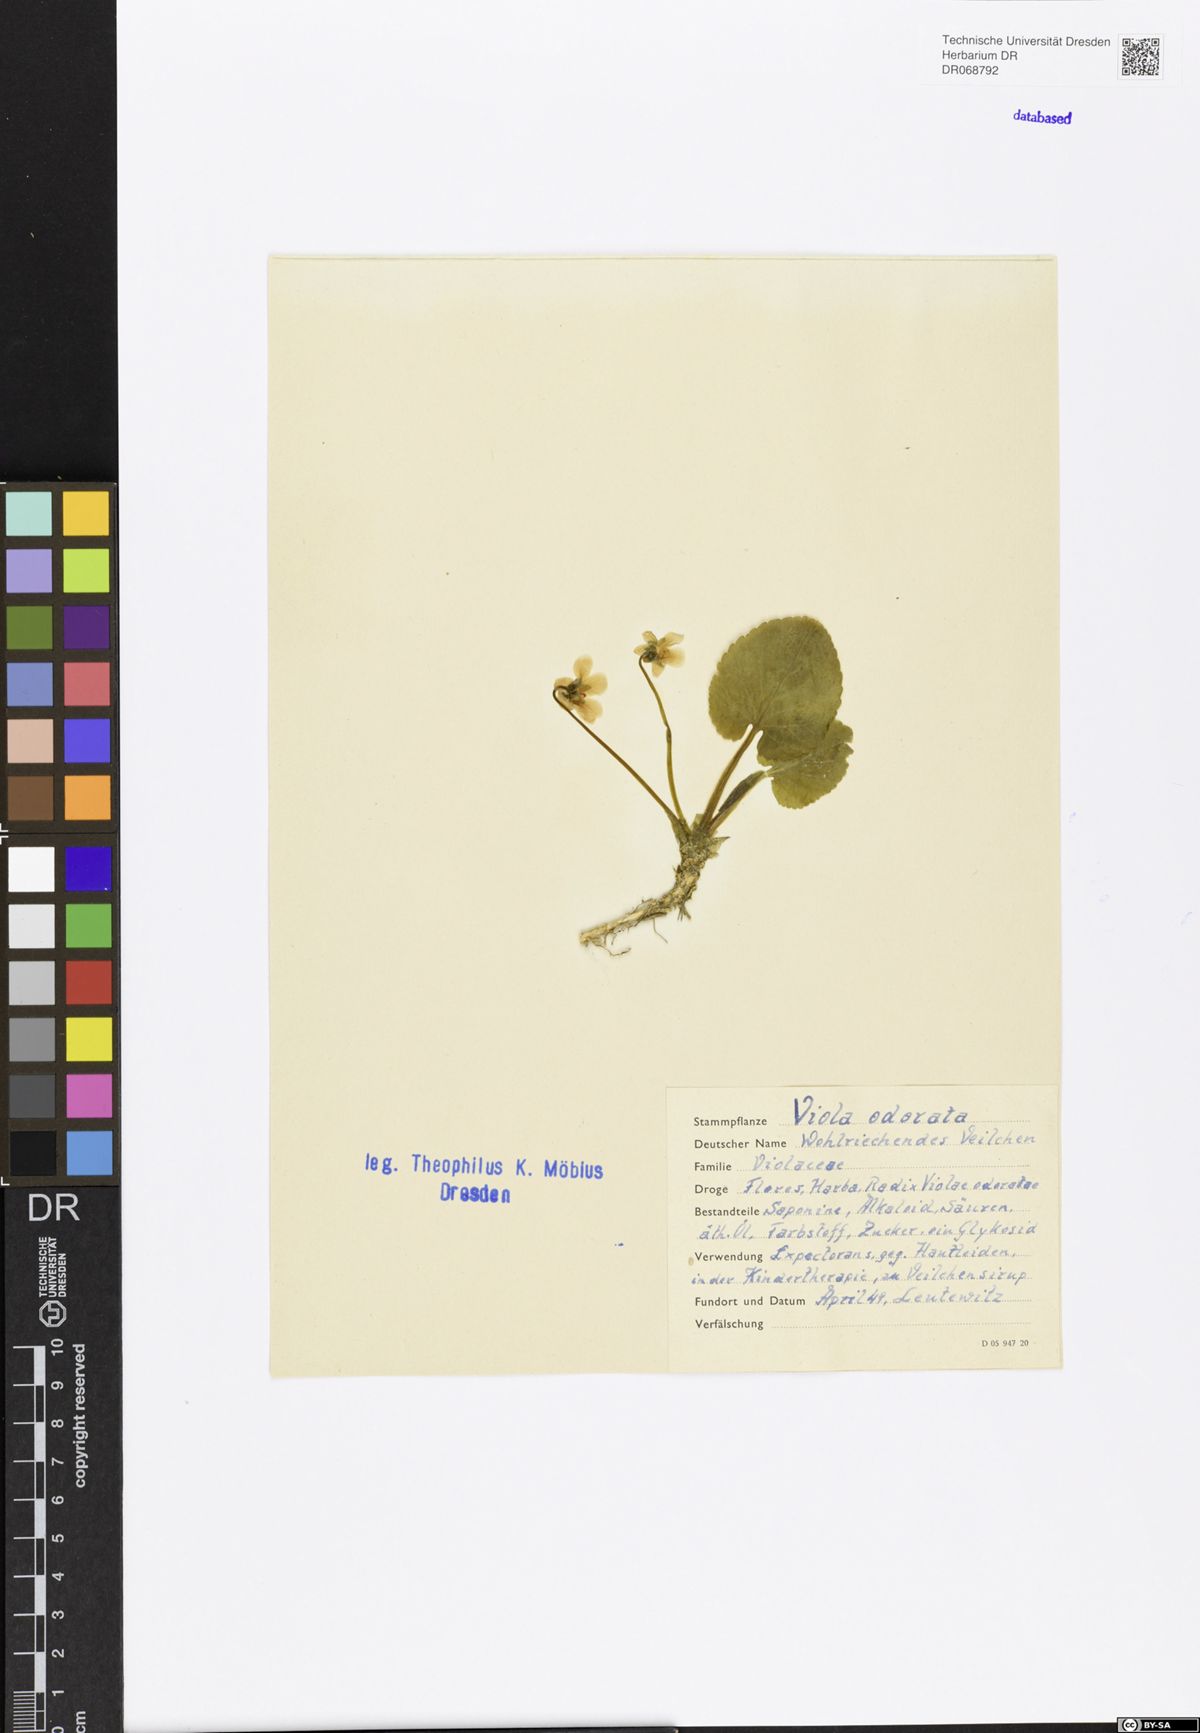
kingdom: Plantae
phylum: Tracheophyta
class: Magnoliopsida
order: Malpighiales
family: Violaceae
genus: Viola
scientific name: Viola odorata
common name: Sweet violet
